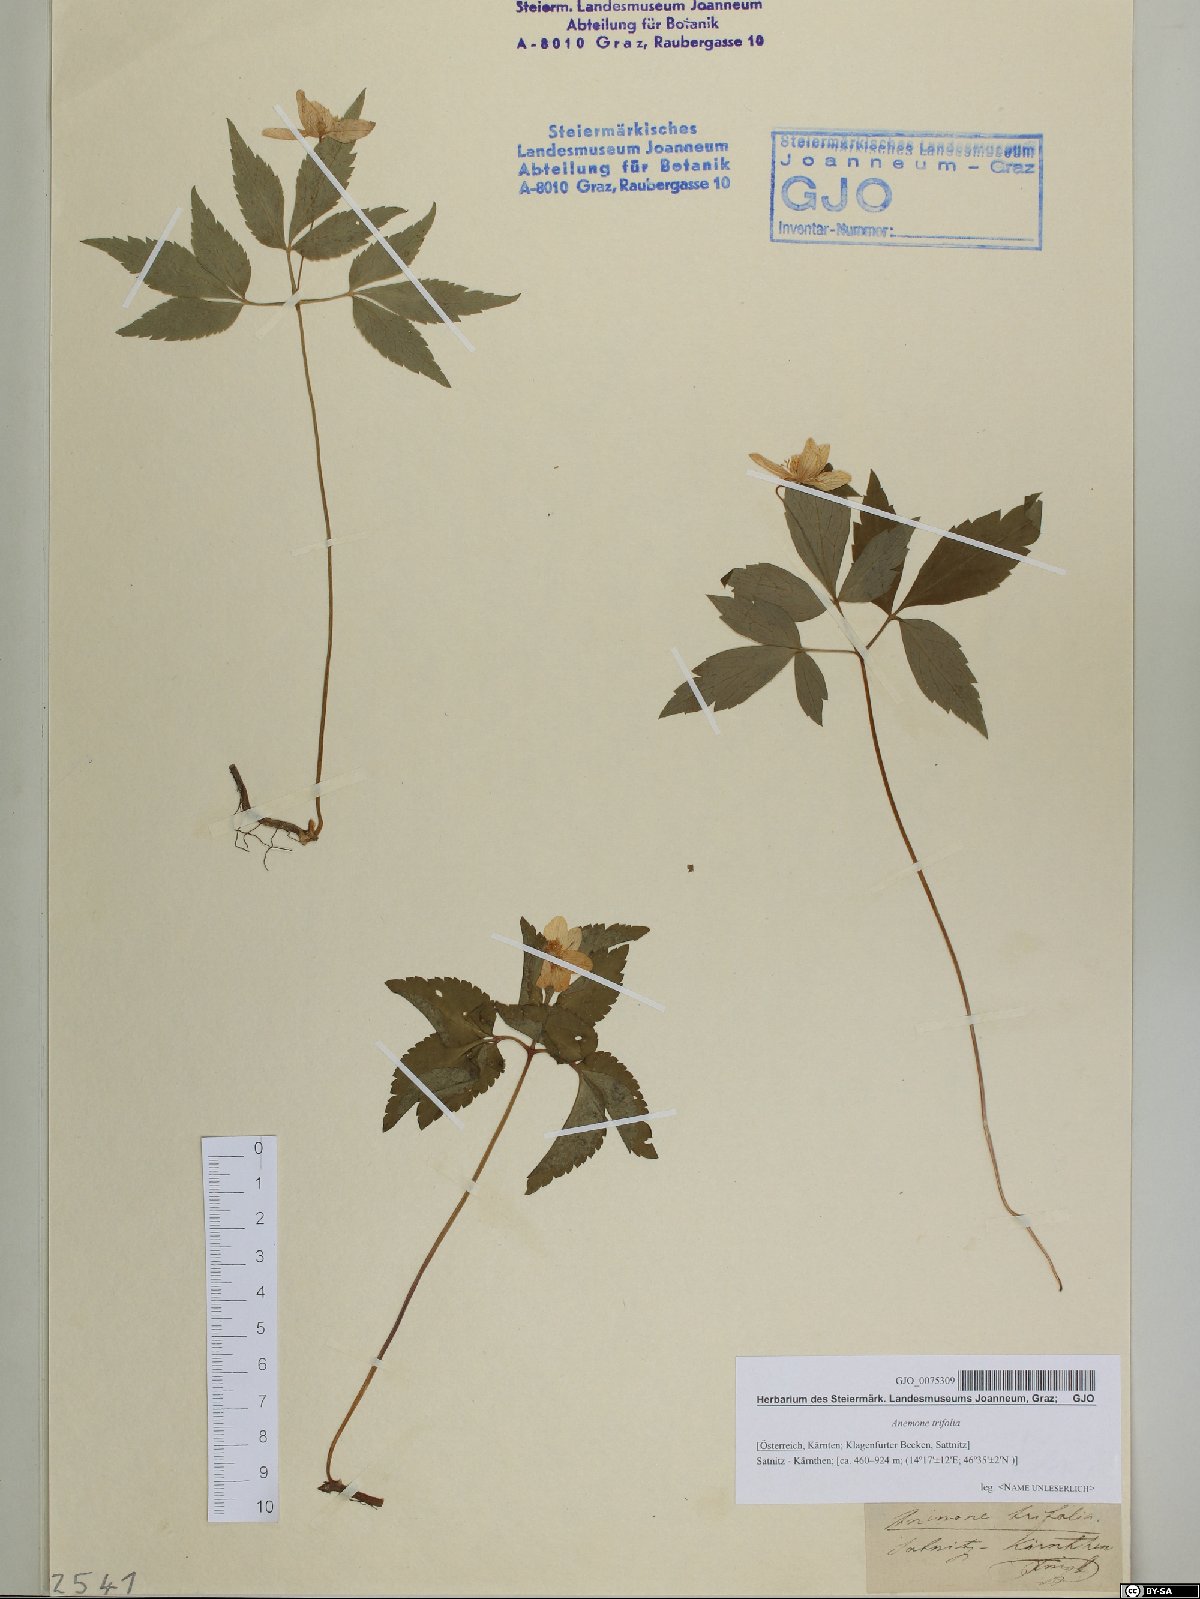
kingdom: Plantae
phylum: Tracheophyta
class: Magnoliopsida
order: Ranunculales
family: Ranunculaceae
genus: Anemone
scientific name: Anemone trifolia
